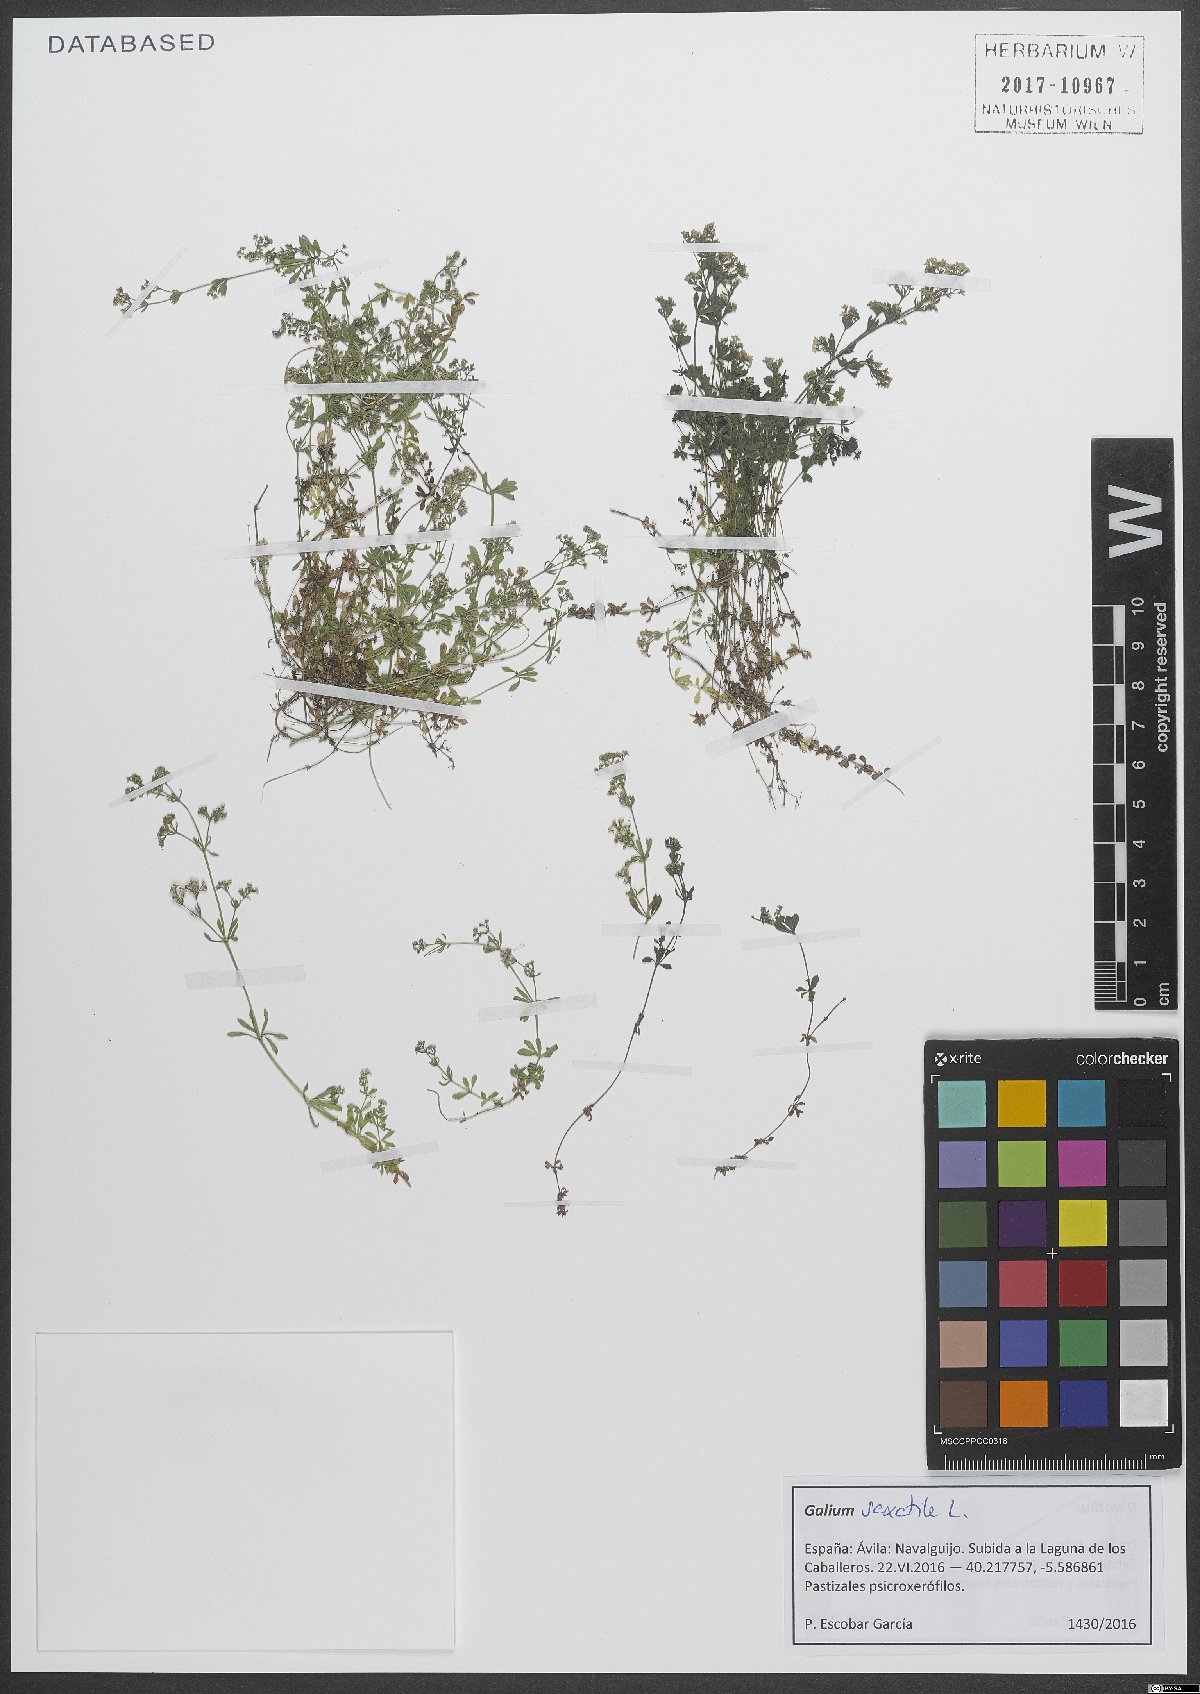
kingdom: Plantae
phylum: Tracheophyta
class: Magnoliopsida
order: Gentianales
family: Rubiaceae
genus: Galium
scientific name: Galium saxatile
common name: Heath bedstraw
